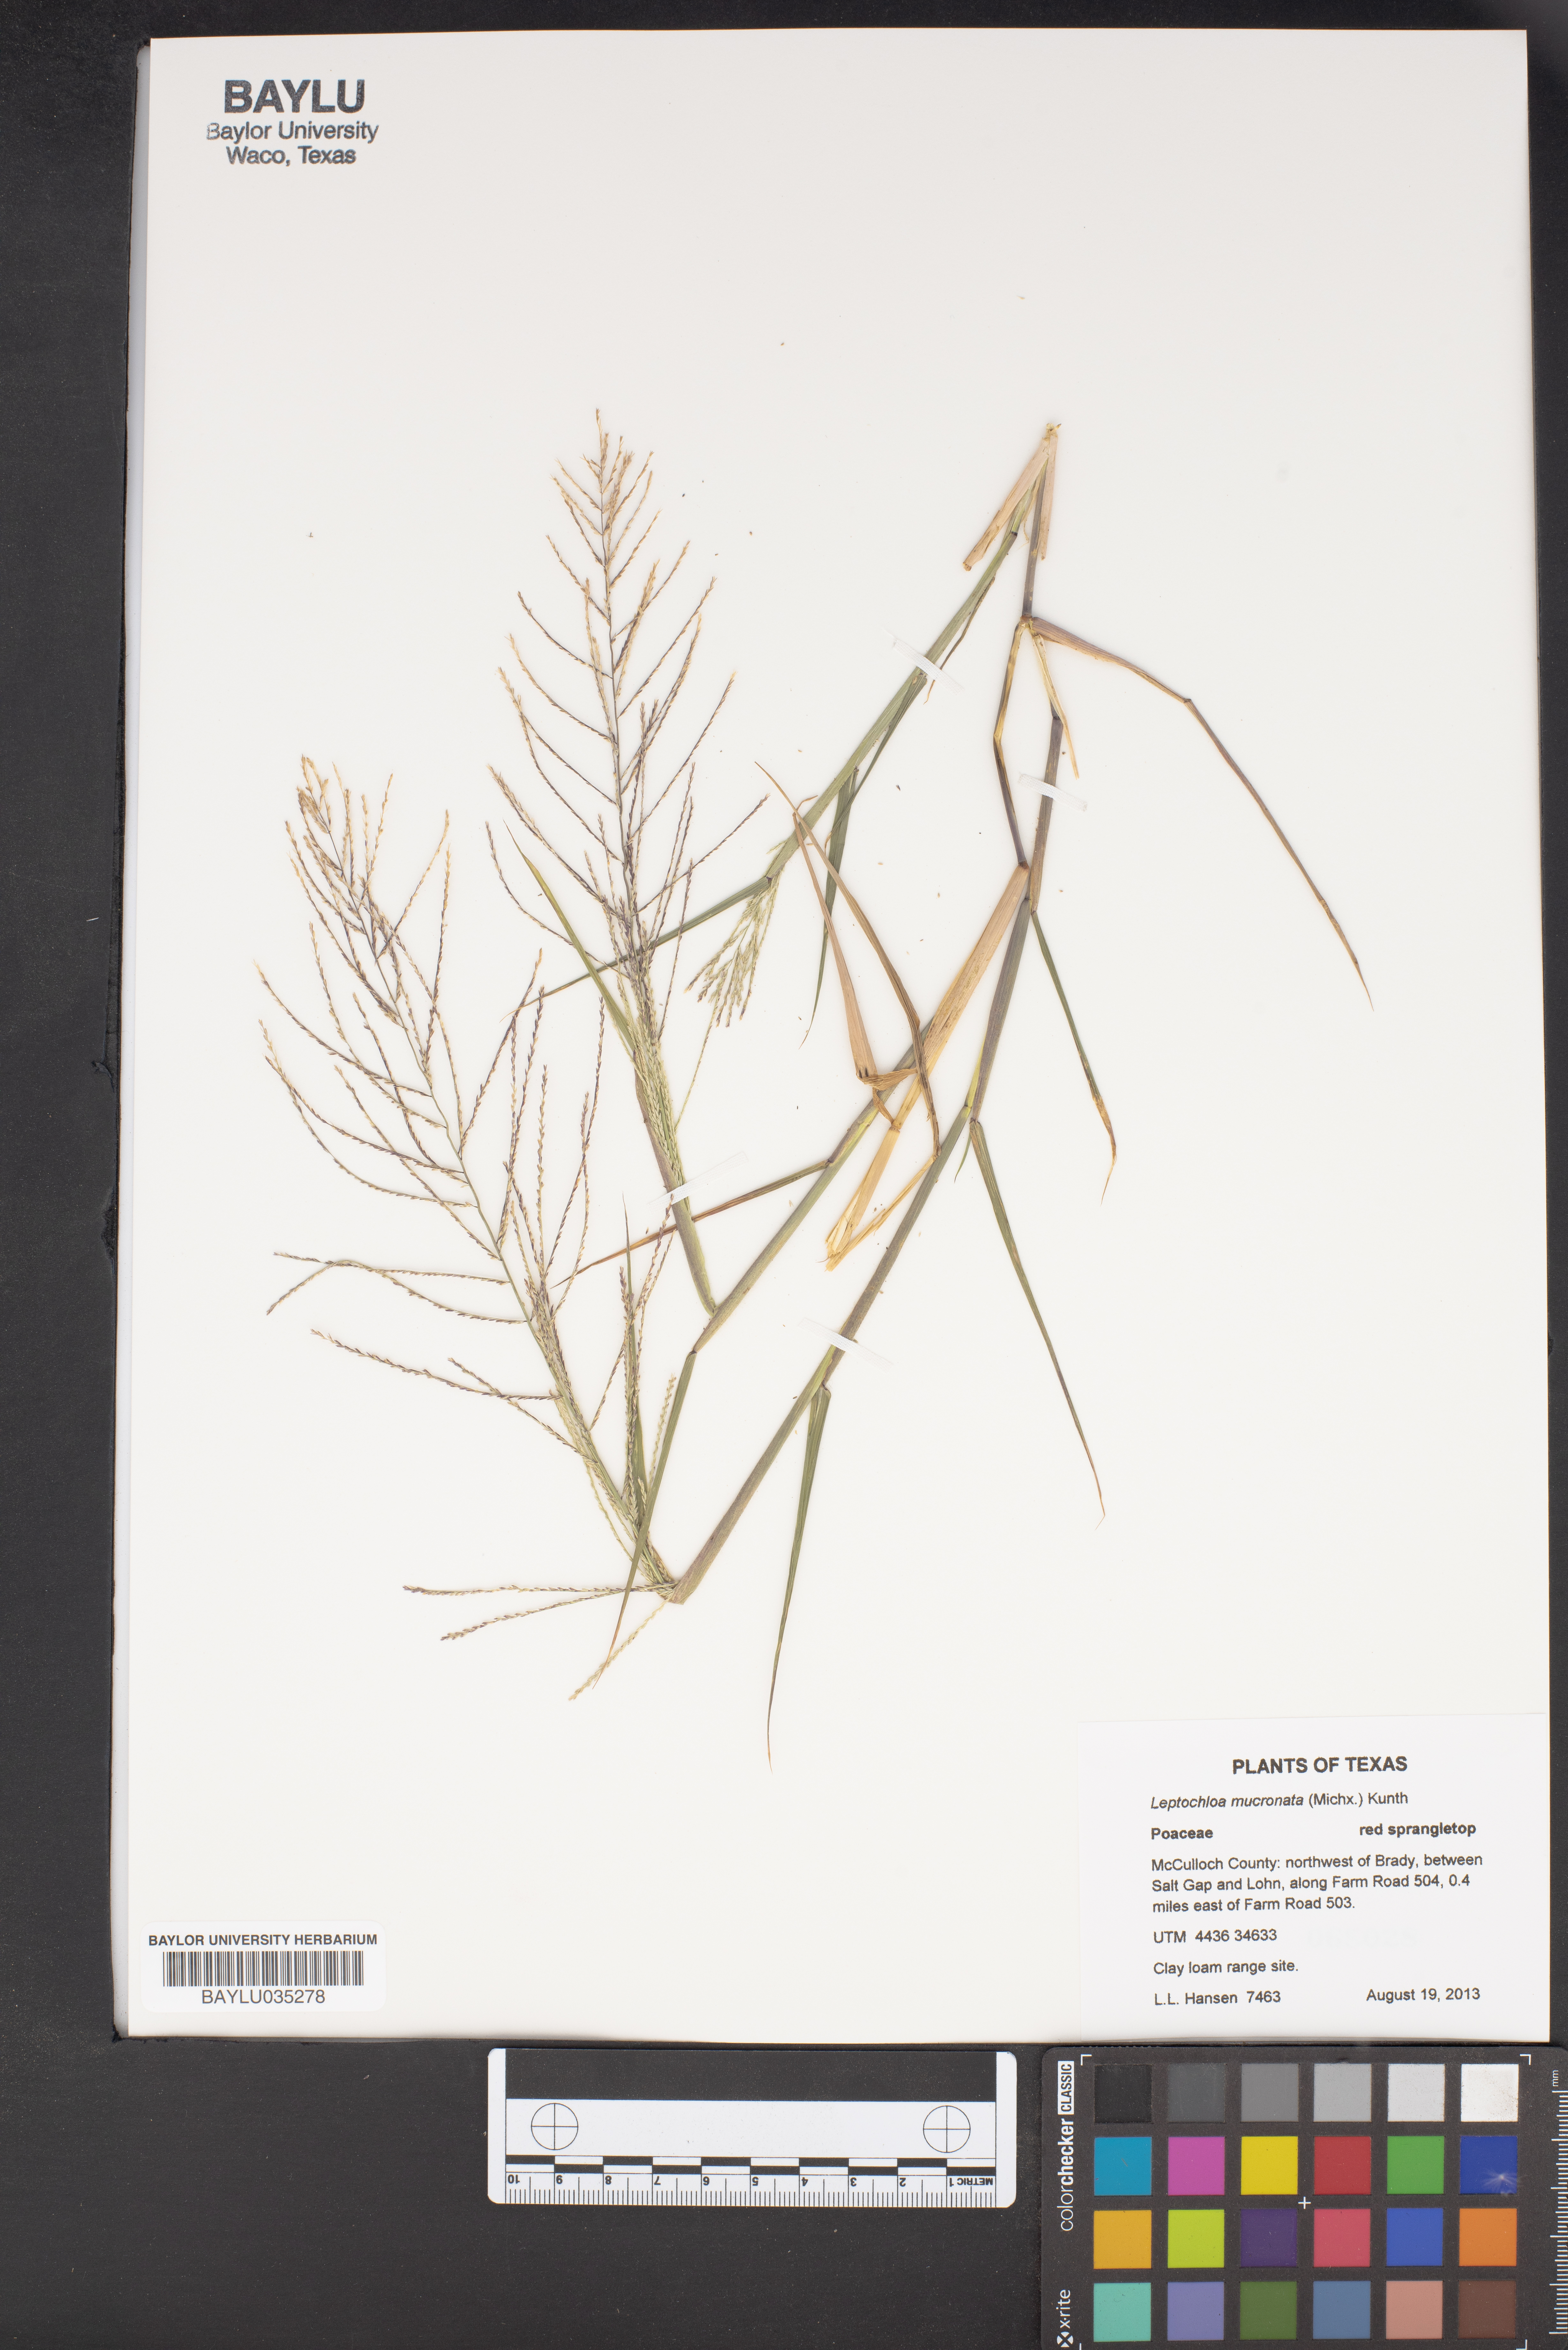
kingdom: Plantae
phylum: Tracheophyta
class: Liliopsida
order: Poales
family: Poaceae
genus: Leptochloa
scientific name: Leptochloa mucronata
